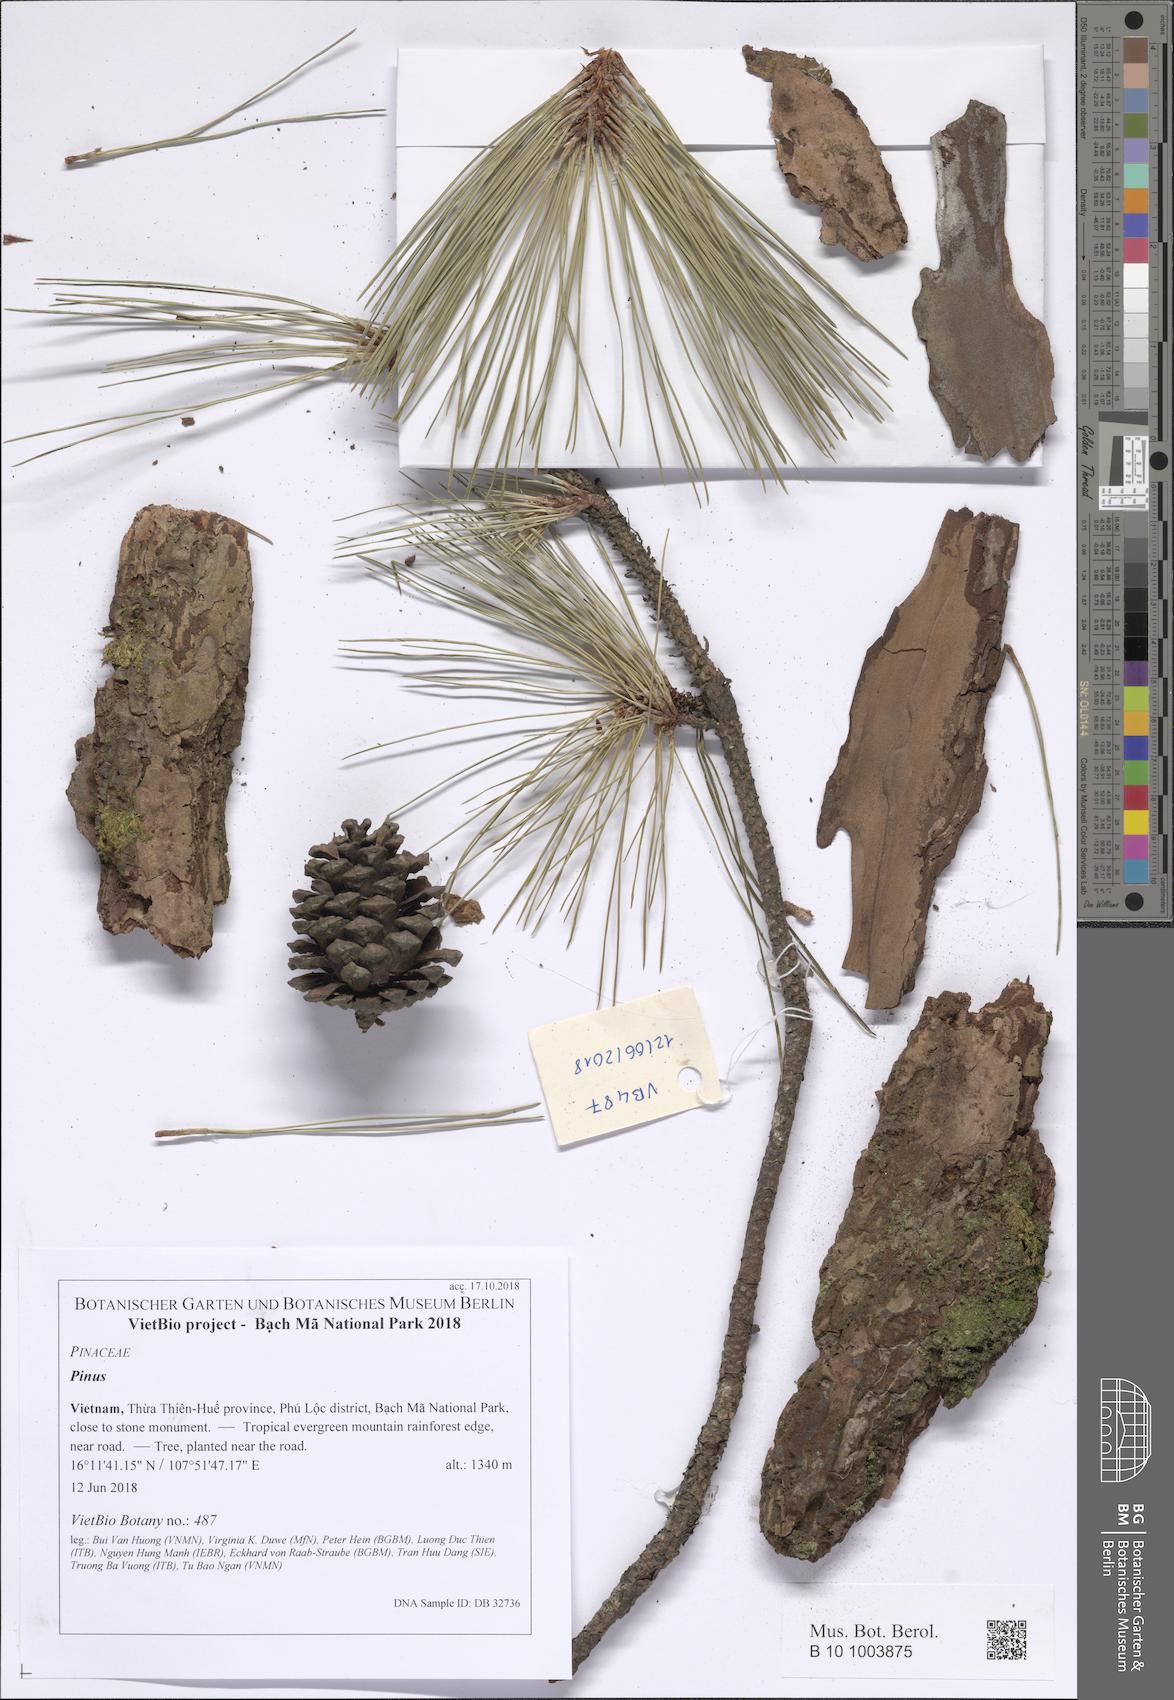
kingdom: Plantae
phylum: Tracheophyta
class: Pinopsida
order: Pinales
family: Pinaceae
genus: Pinus
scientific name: Pinus kesiya
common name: Benguet pine
